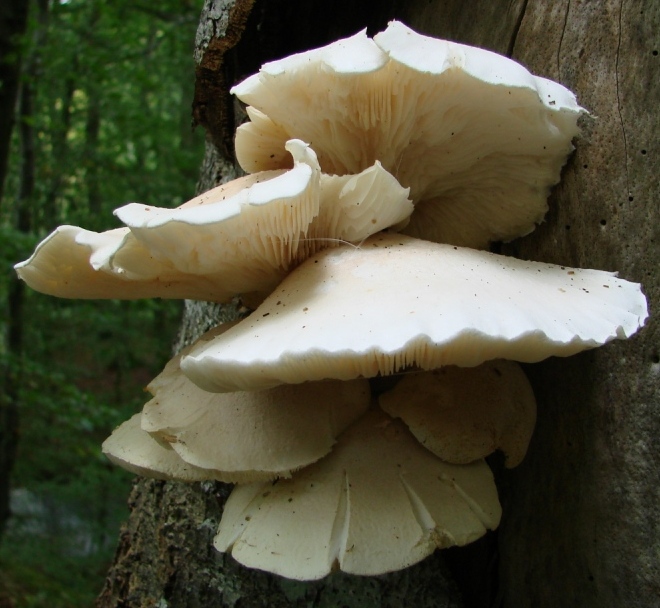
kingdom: Fungi
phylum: Basidiomycota
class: Agaricomycetes
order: Agaricales
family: Pleurotaceae
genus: Pleurotus
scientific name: Pleurotus dryinus
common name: korkagtig østershat
